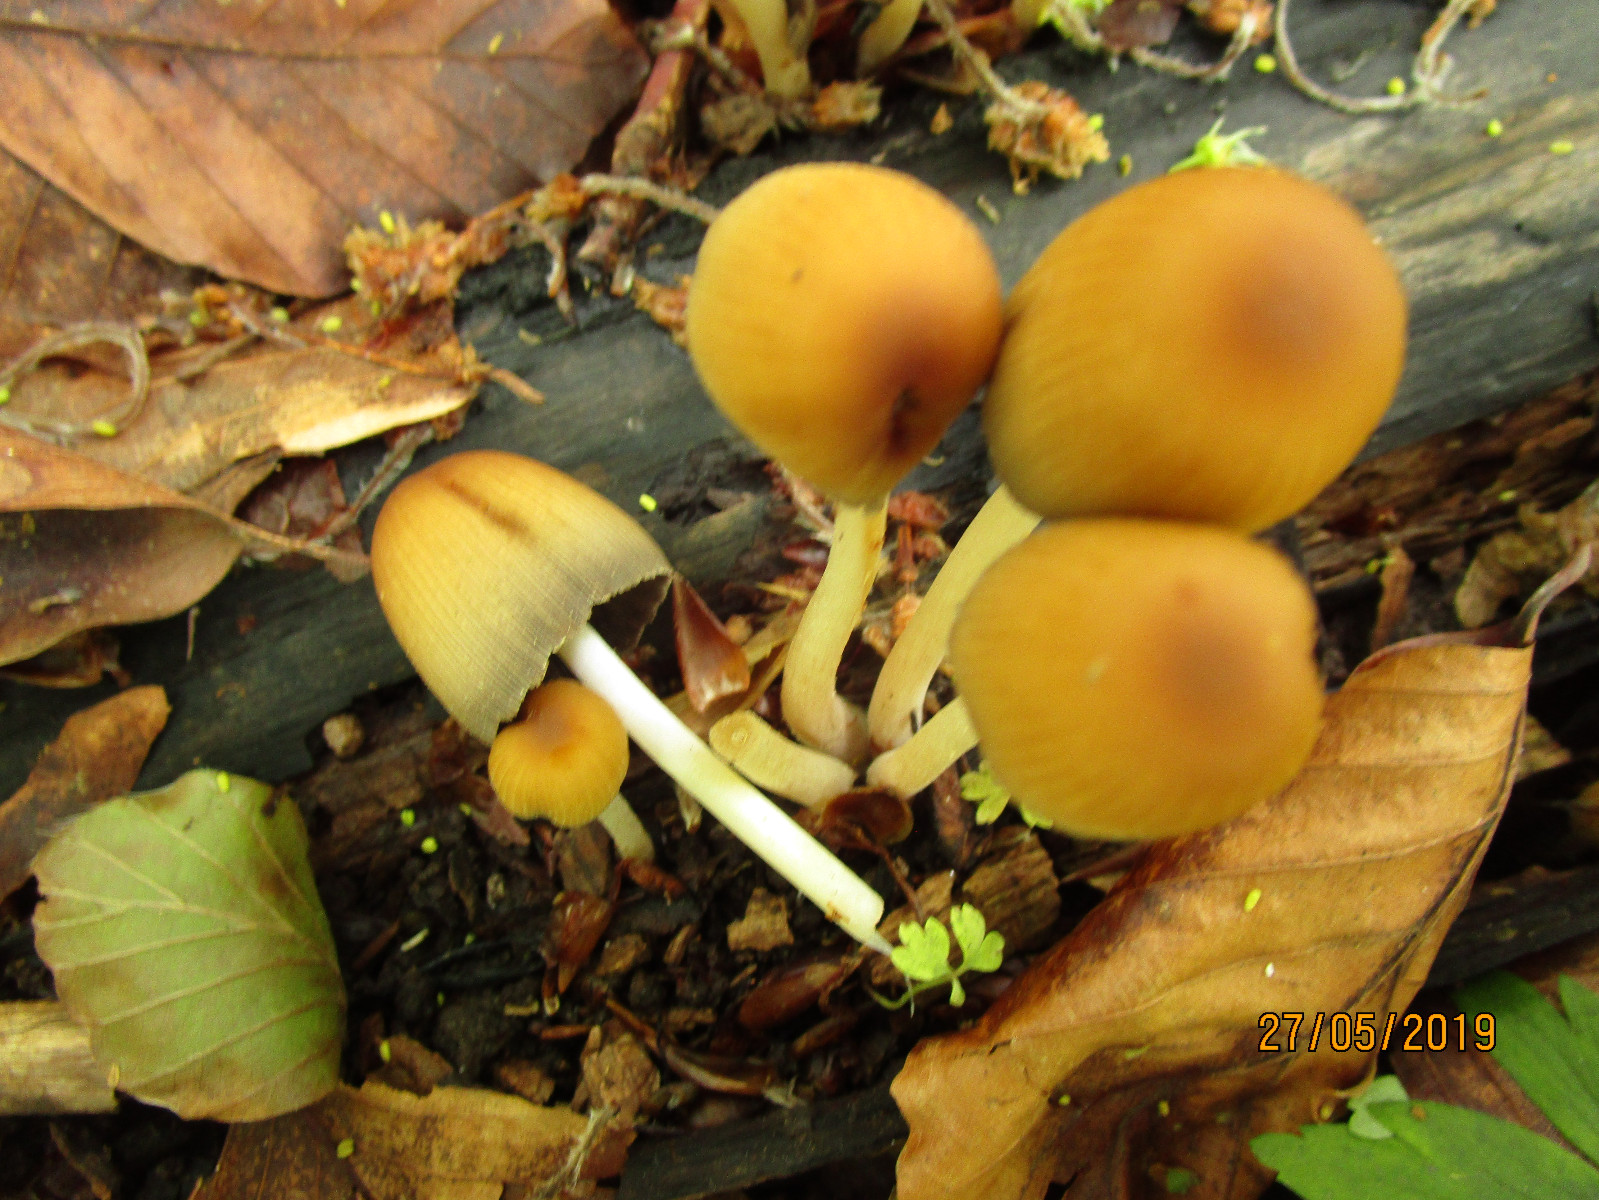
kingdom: Fungi
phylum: Basidiomycota
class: Agaricomycetes
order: Agaricales
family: Psathyrellaceae
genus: Coprinellus
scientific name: Coprinellus
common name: blækhat
